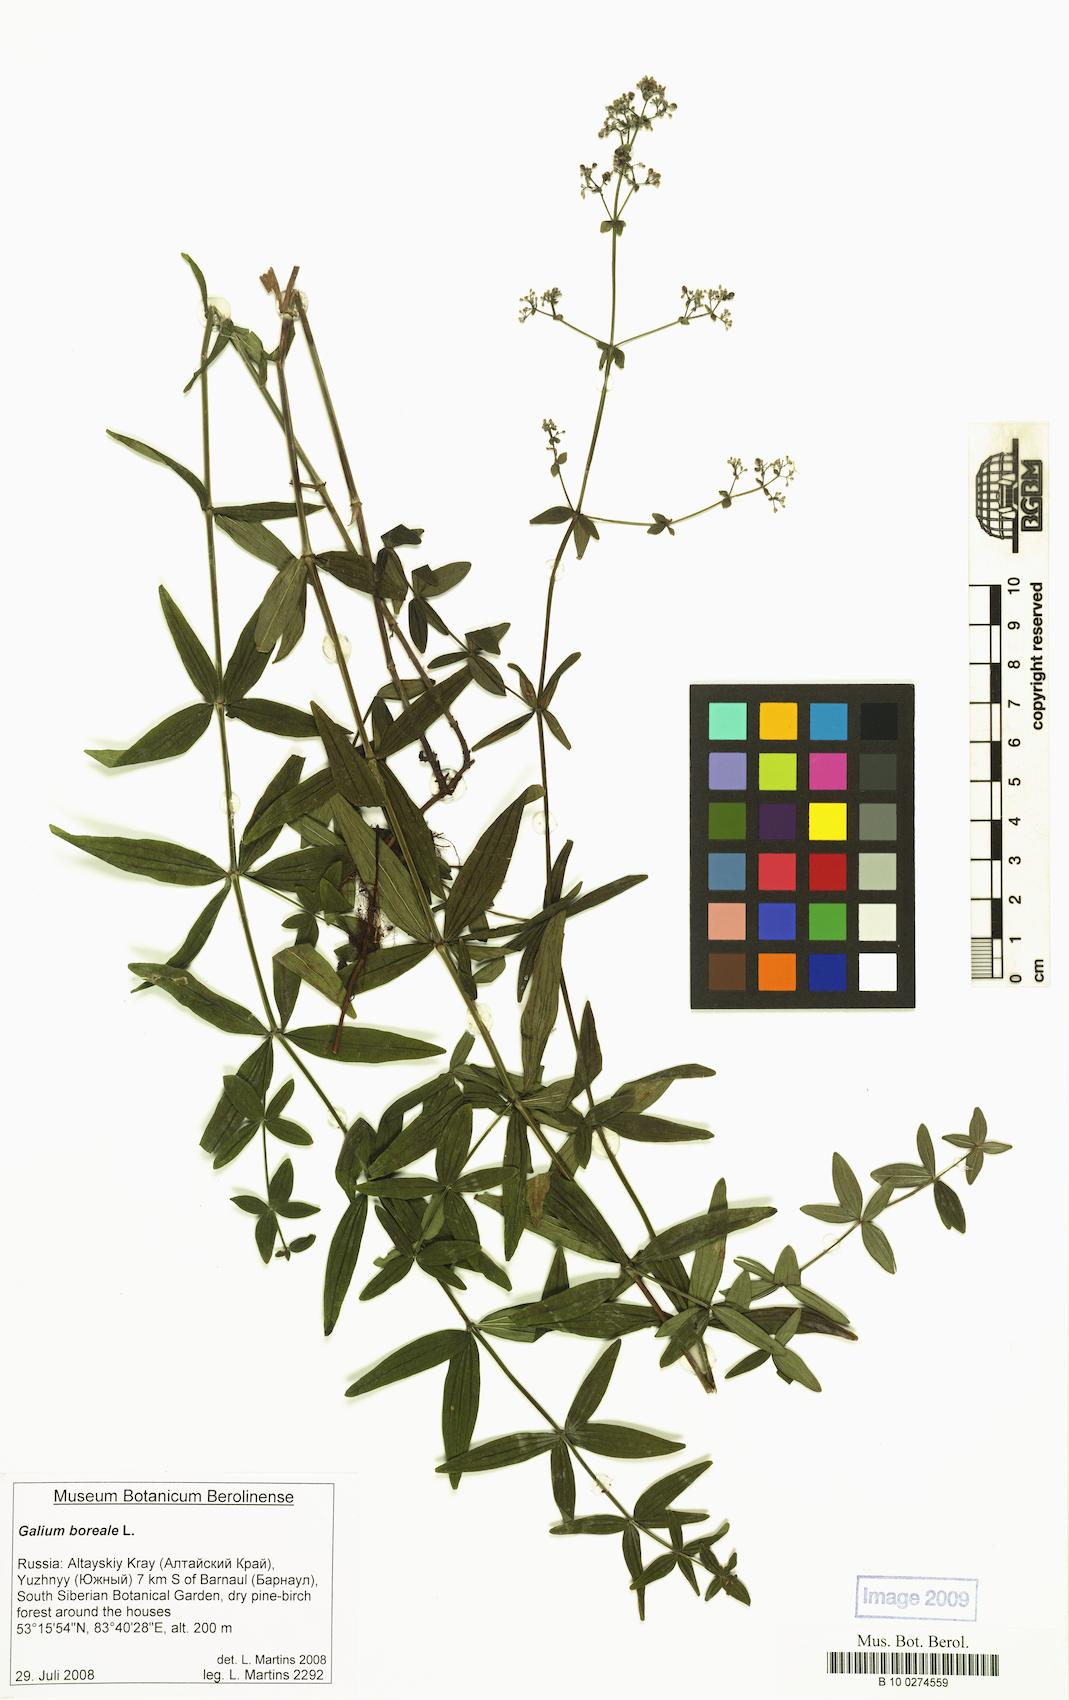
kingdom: Plantae
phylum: Tracheophyta
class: Magnoliopsida
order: Gentianales
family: Rubiaceae
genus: Galium
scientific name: Galium boreale
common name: Northern bedstraw
